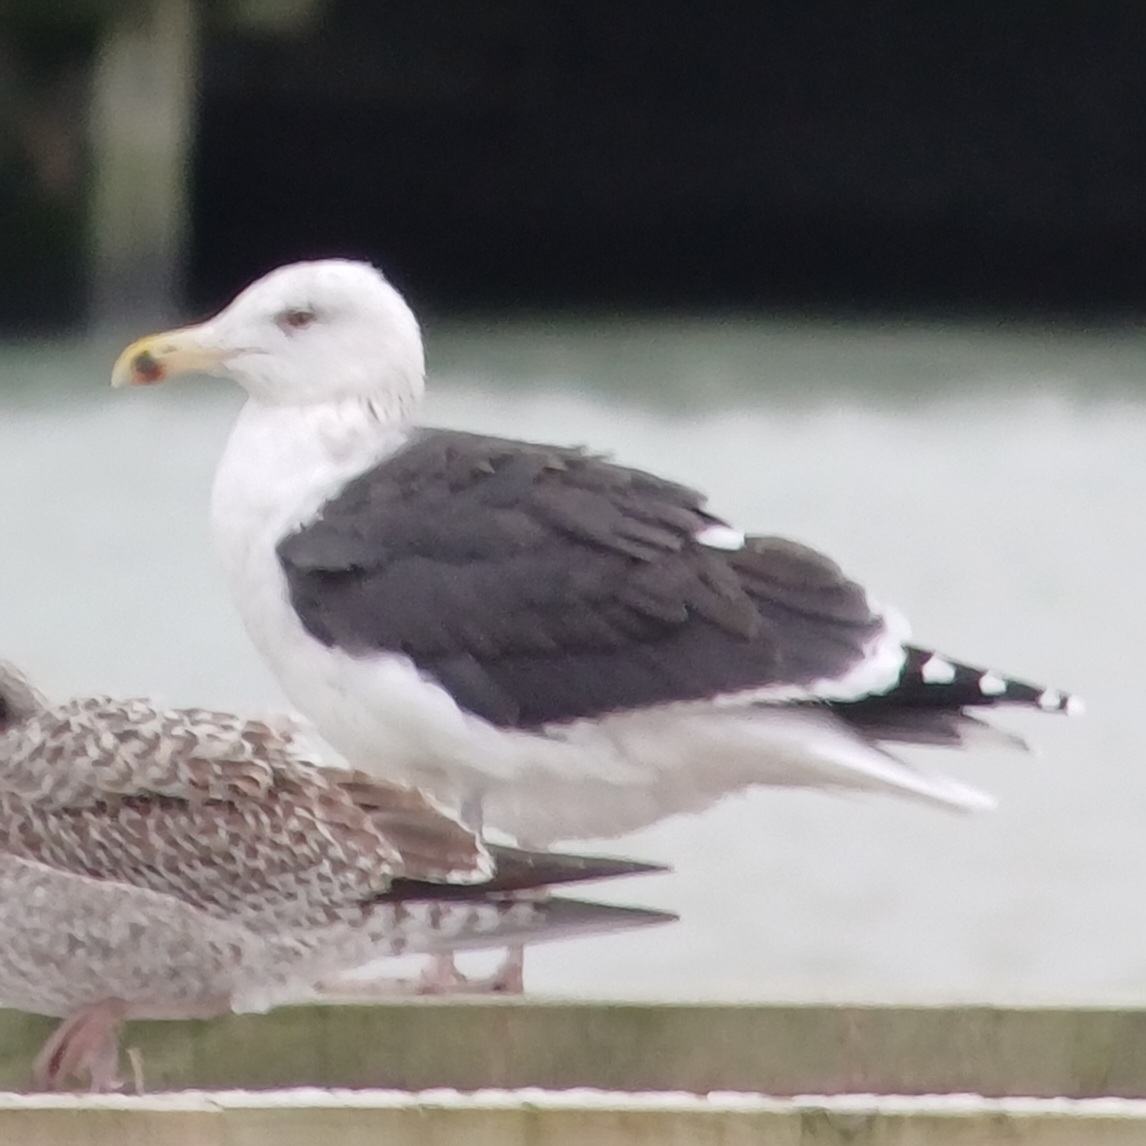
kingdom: Animalia
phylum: Chordata
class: Aves
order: Charadriiformes
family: Laridae
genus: Larus
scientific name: Larus marinus
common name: Svartbag
